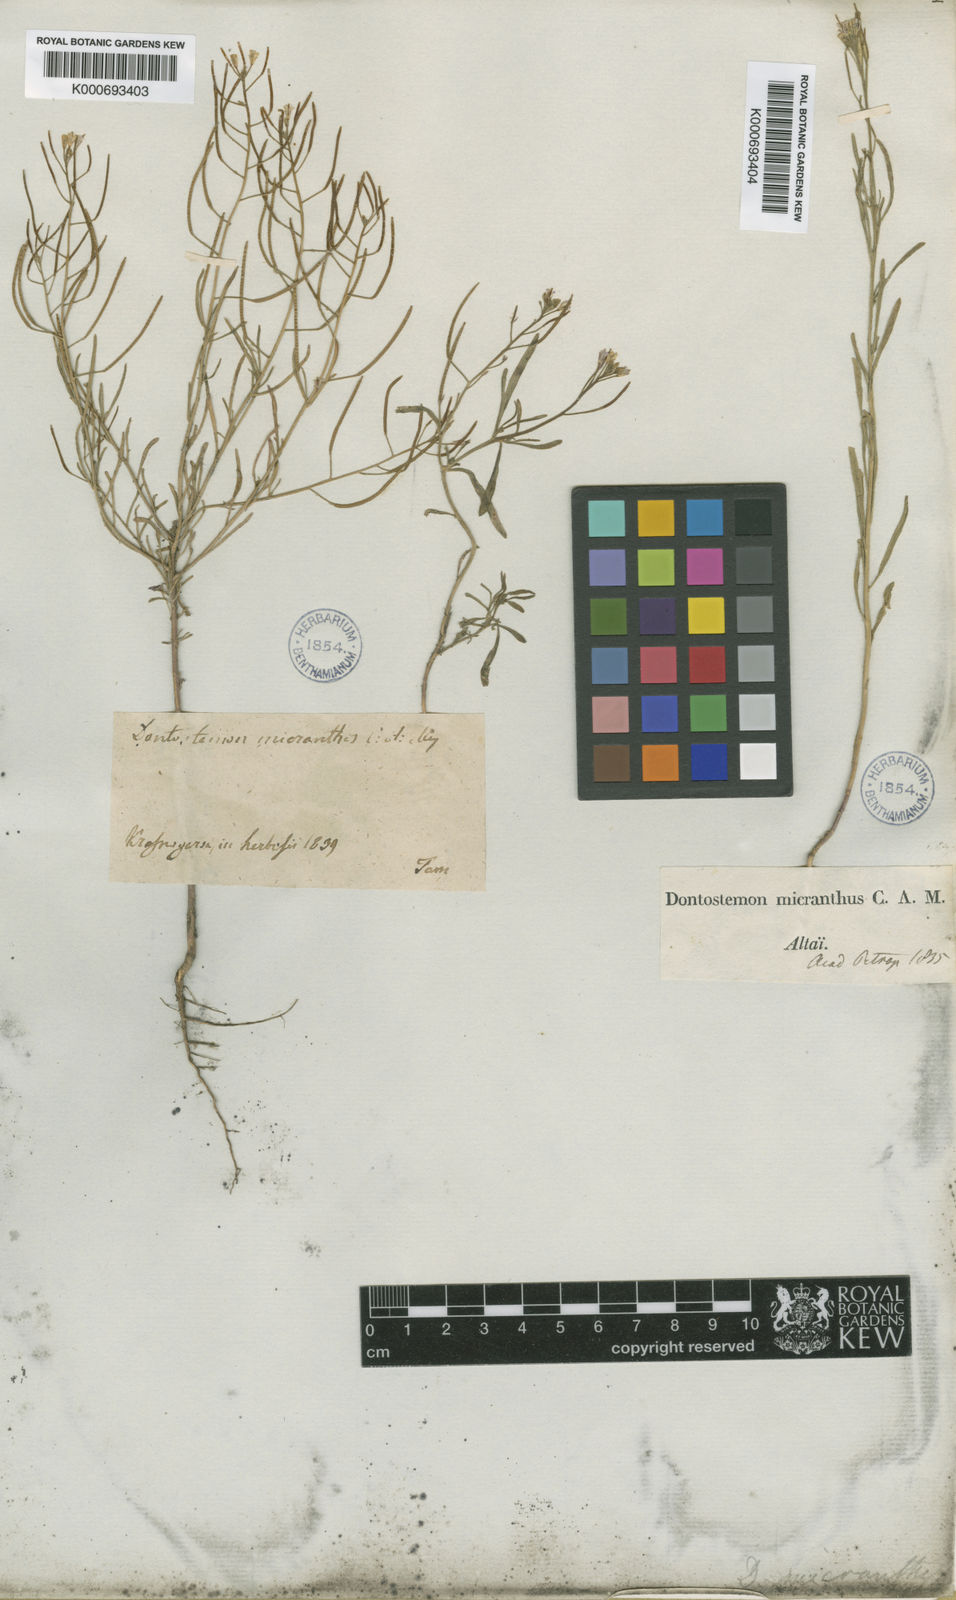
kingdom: Plantae
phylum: Tracheophyta
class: Magnoliopsida
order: Brassicales
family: Brassicaceae
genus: Dontostemon
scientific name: Dontostemon micranthus
